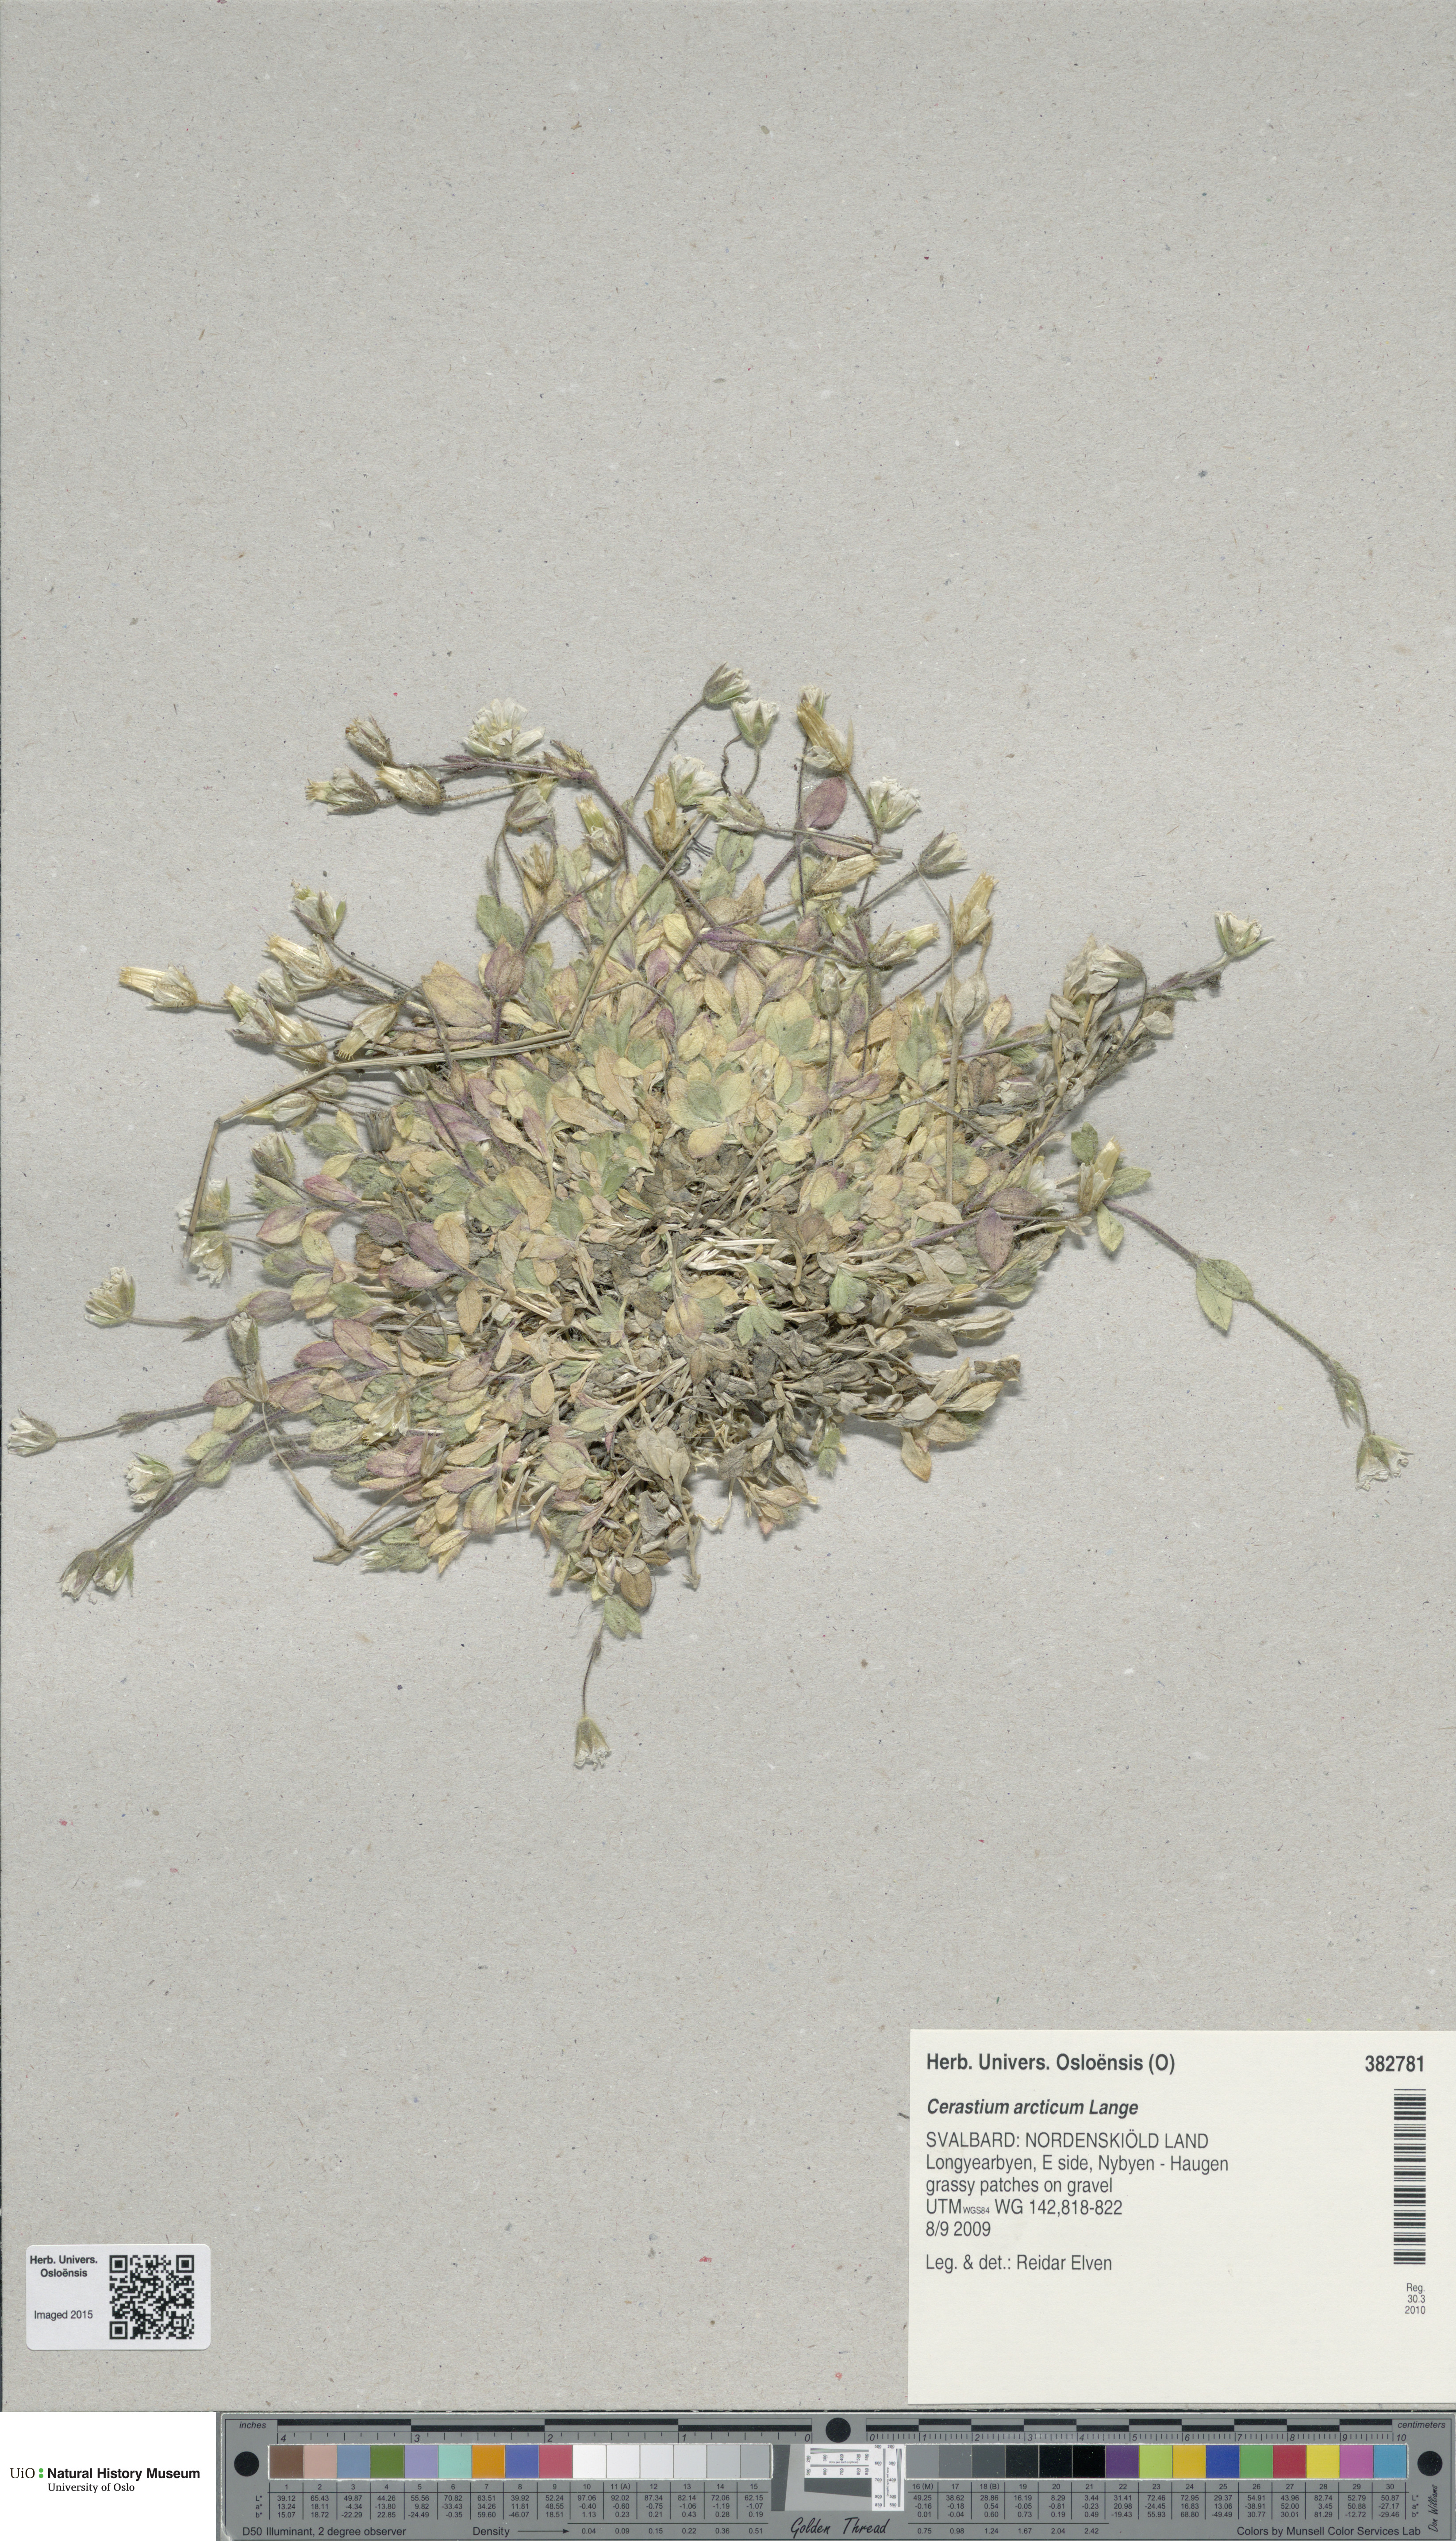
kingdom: Plantae
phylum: Tracheophyta
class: Magnoliopsida
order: Caryophyllales
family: Caryophyllaceae
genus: Cerastium
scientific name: Cerastium arcticum
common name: Arctic mouse-ear
